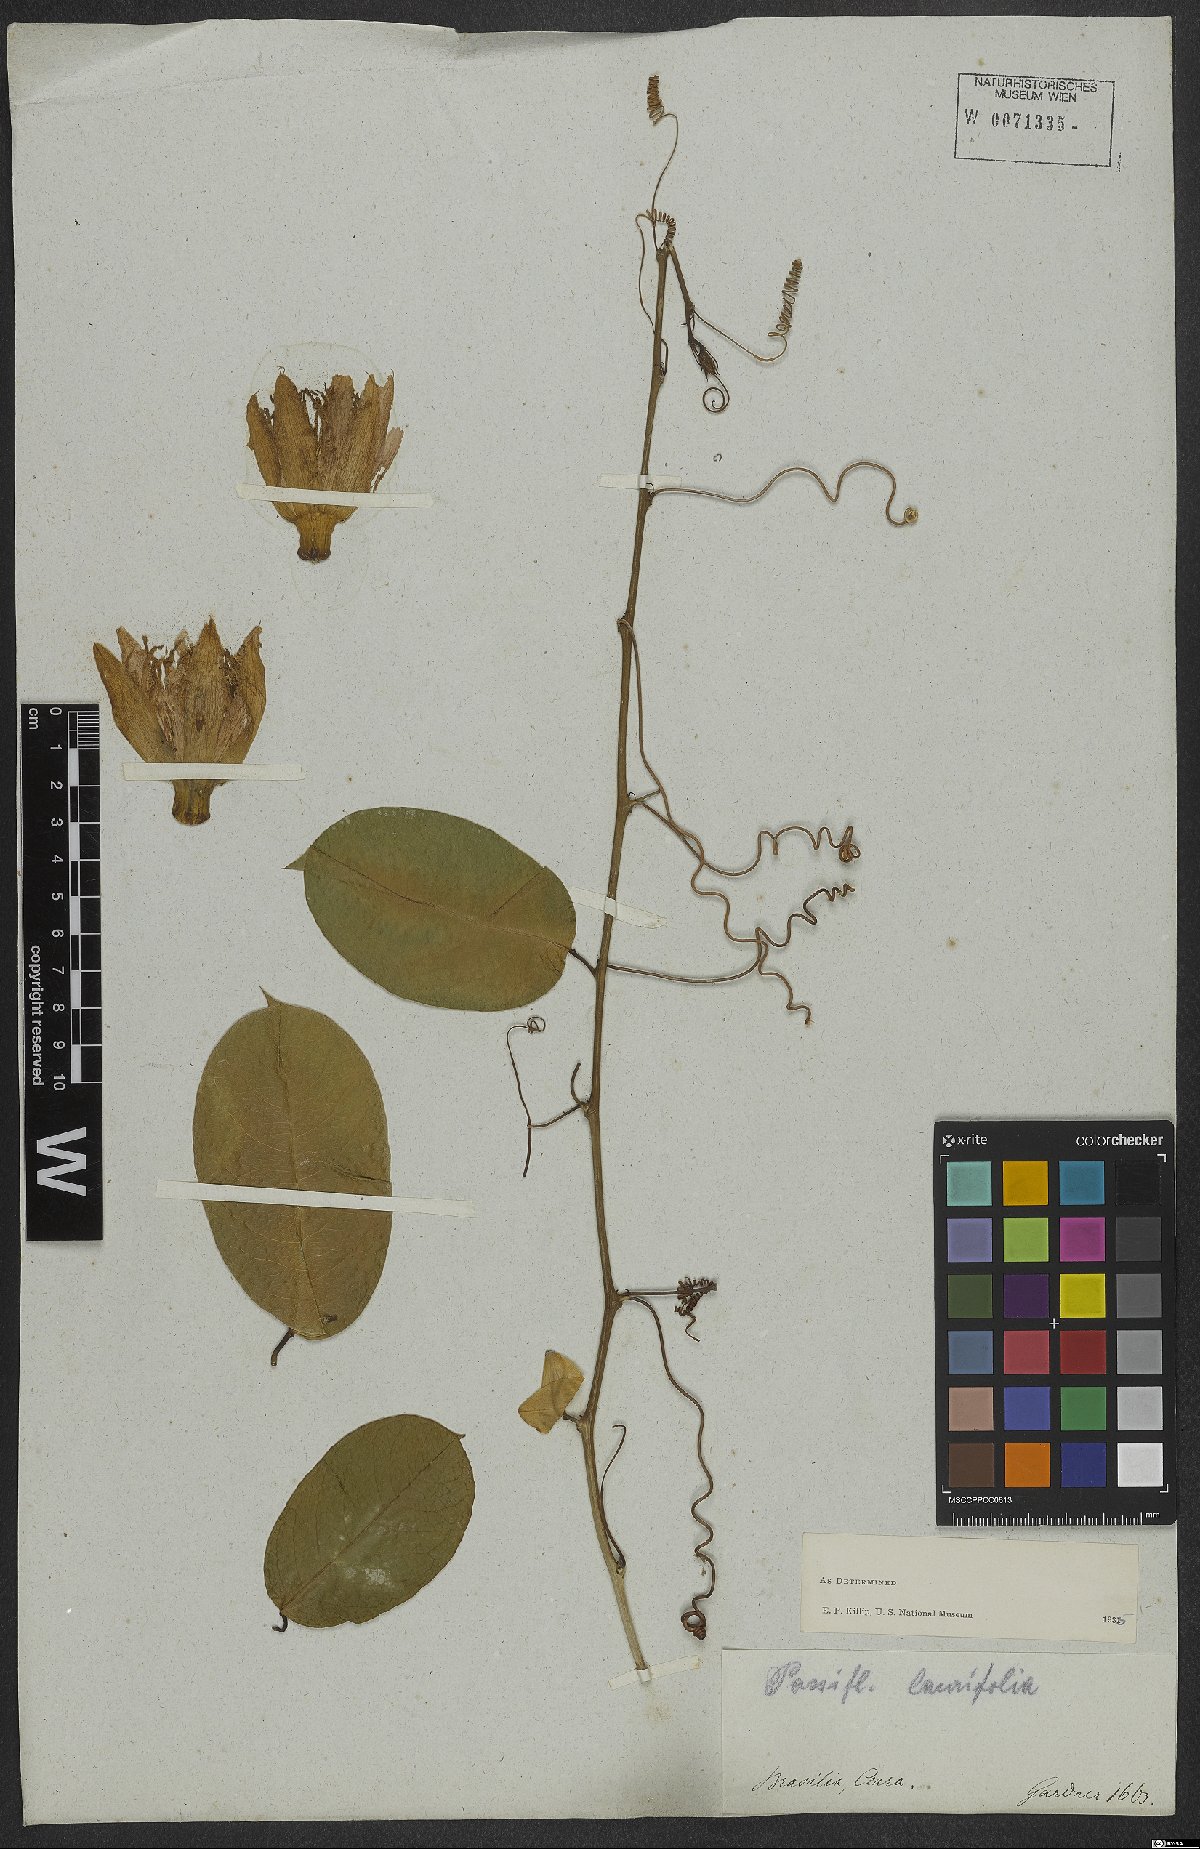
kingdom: Plantae
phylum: Tracheophyta
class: Magnoliopsida
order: Malpighiales
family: Passifloraceae
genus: Passiflora
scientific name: Passiflora laurifolia
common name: Bell apple
